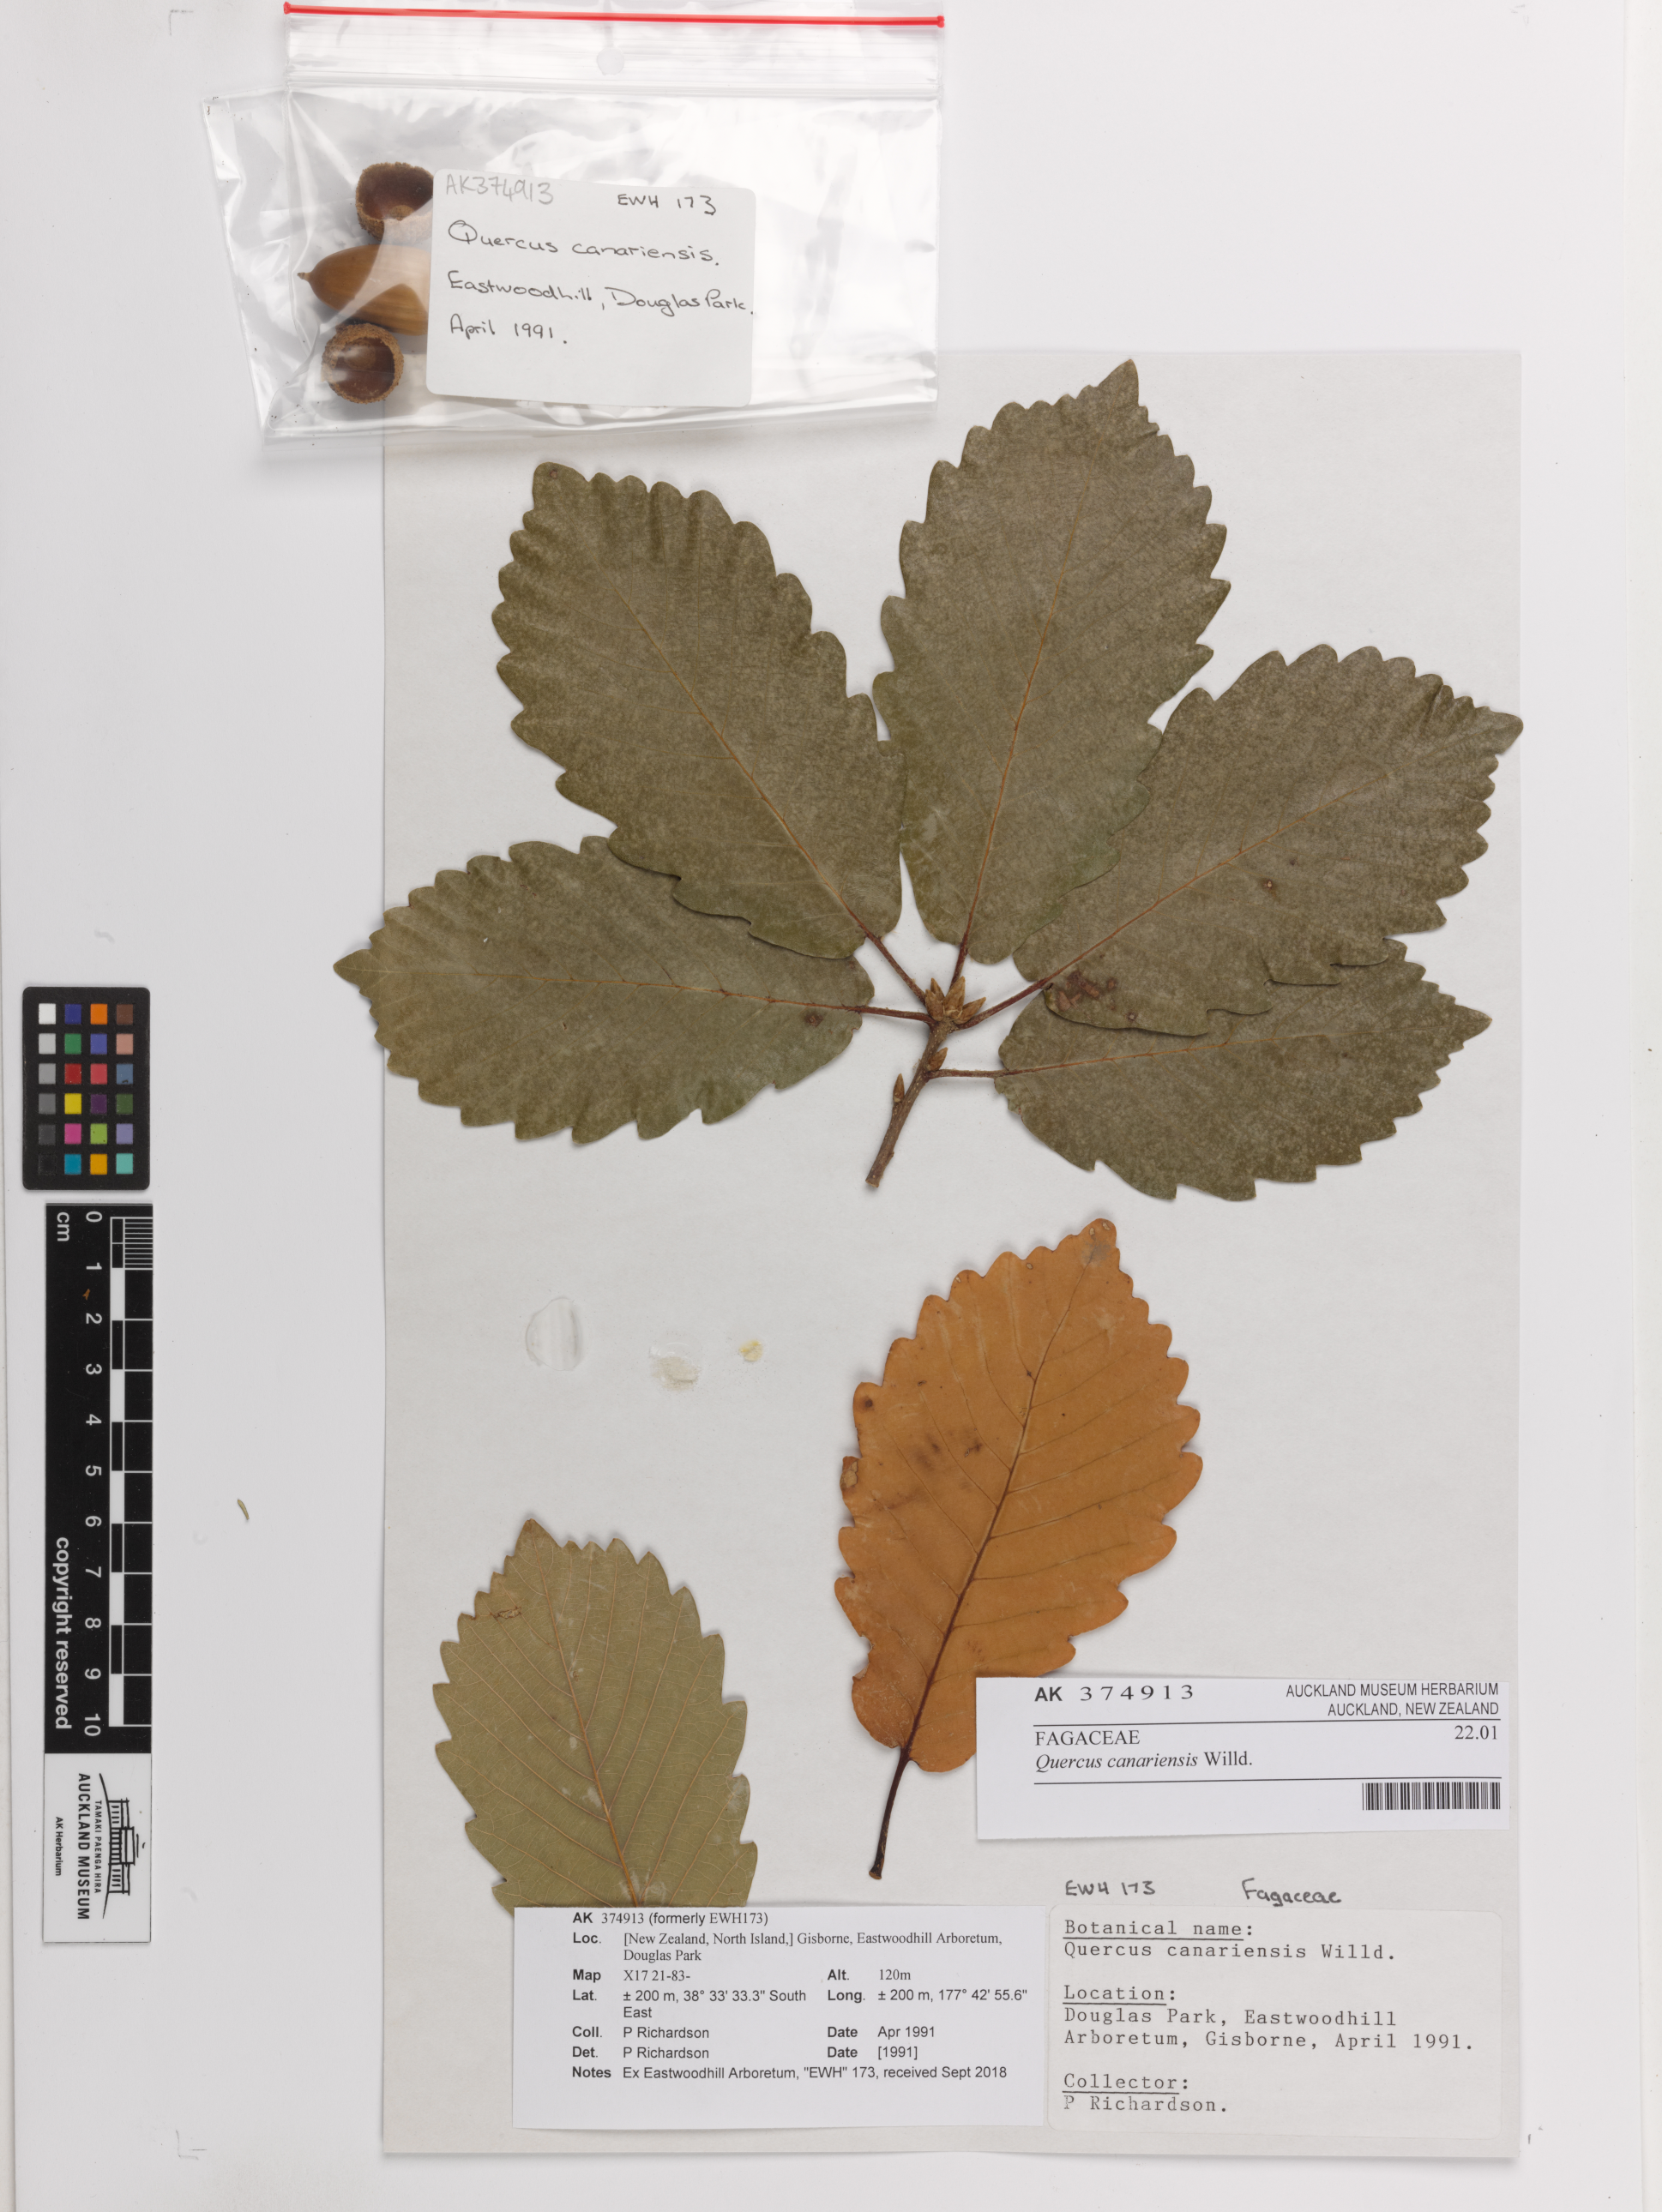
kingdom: Plantae
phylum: Tracheophyta
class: Magnoliopsida
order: Fagales
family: Fagaceae
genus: Quercus
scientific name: Quercus canariensis
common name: Algerian oak
